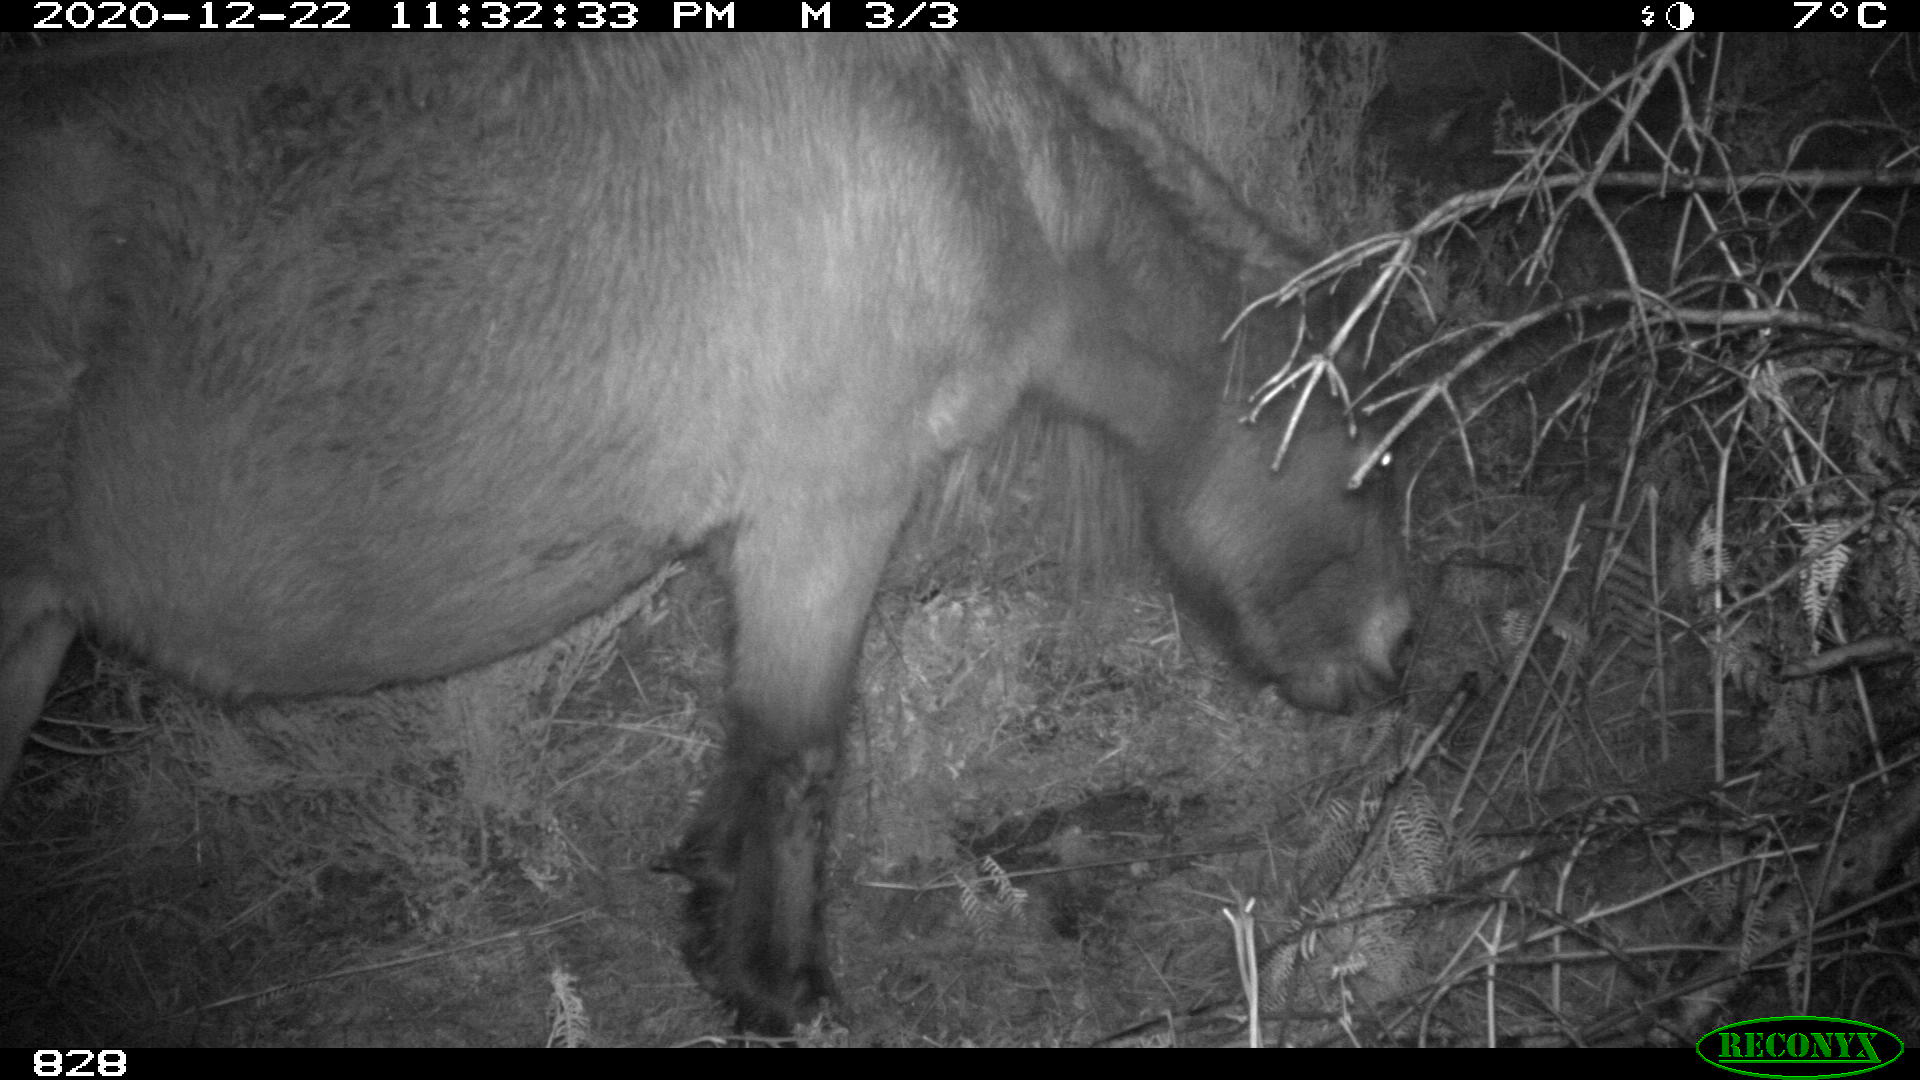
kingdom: Animalia
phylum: Chordata
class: Mammalia
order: Perissodactyla
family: Equidae
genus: Equus
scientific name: Equus caballus
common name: Horse
